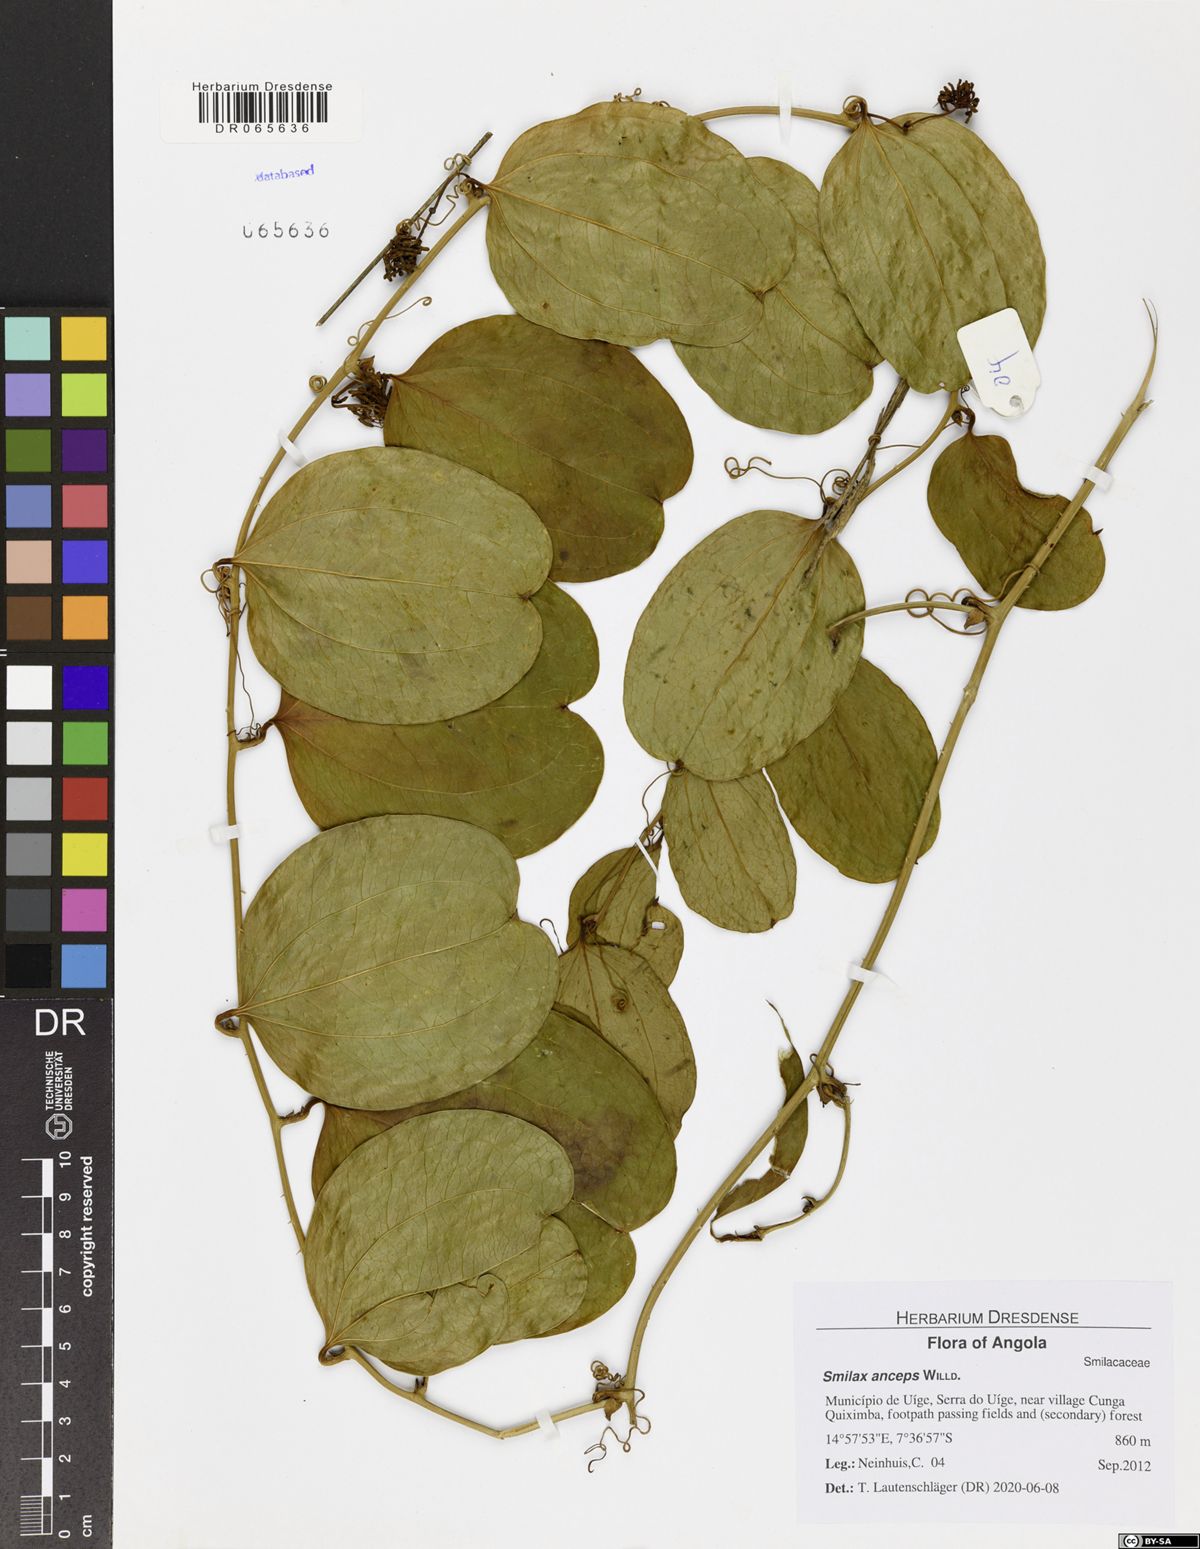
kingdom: Plantae
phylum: Tracheophyta
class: Liliopsida
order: Liliales
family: Smilacaceae
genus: Smilax
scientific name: Smilax anceps
